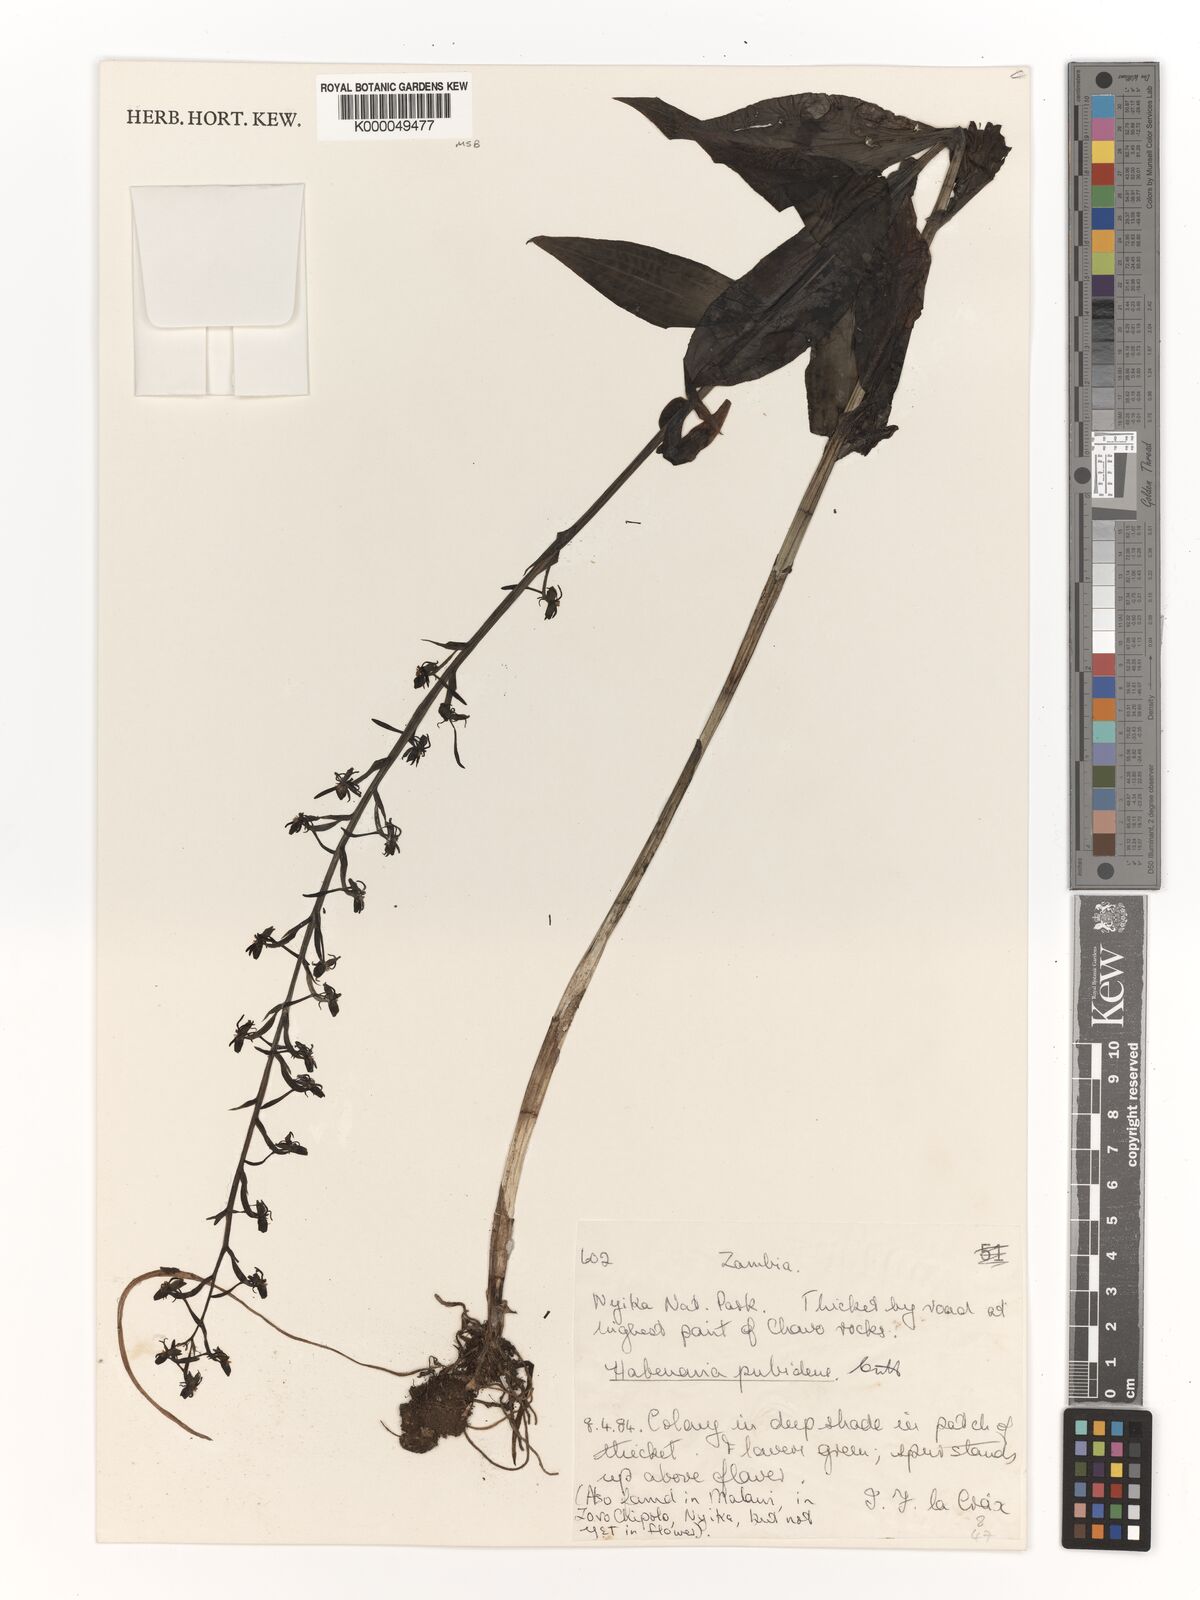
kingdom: Plantae
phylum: Tracheophyta
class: Liliopsida
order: Asparagales
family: Orchidaceae
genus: Habenaria
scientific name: Habenaria pubidens
